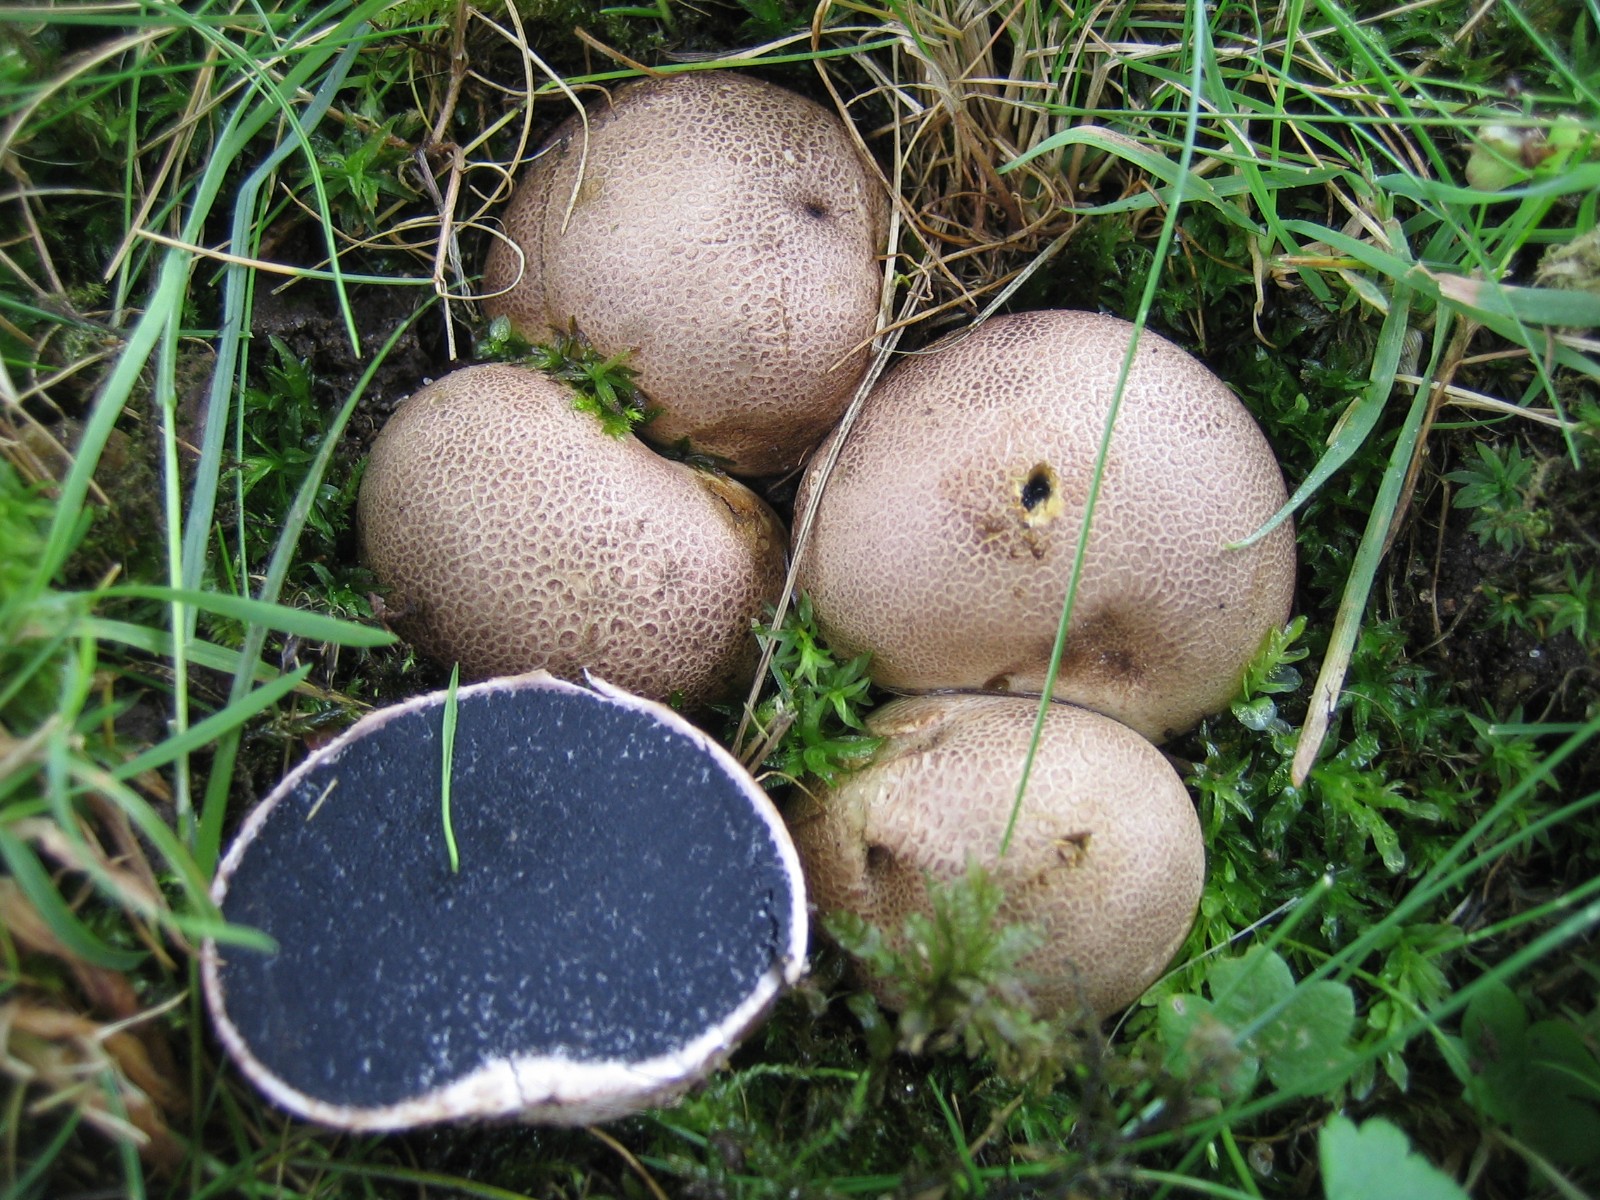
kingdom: Fungi
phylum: Basidiomycota
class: Agaricomycetes
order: Boletales
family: Sclerodermataceae
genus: Scleroderma
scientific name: Scleroderma
